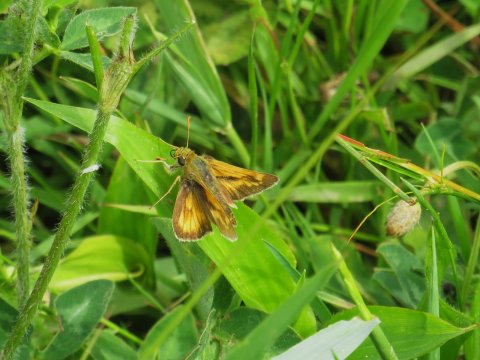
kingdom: Animalia
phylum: Arthropoda
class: Insecta
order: Lepidoptera
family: Hesperiidae
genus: Polites
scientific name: Polites
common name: Long Dash Skipper
